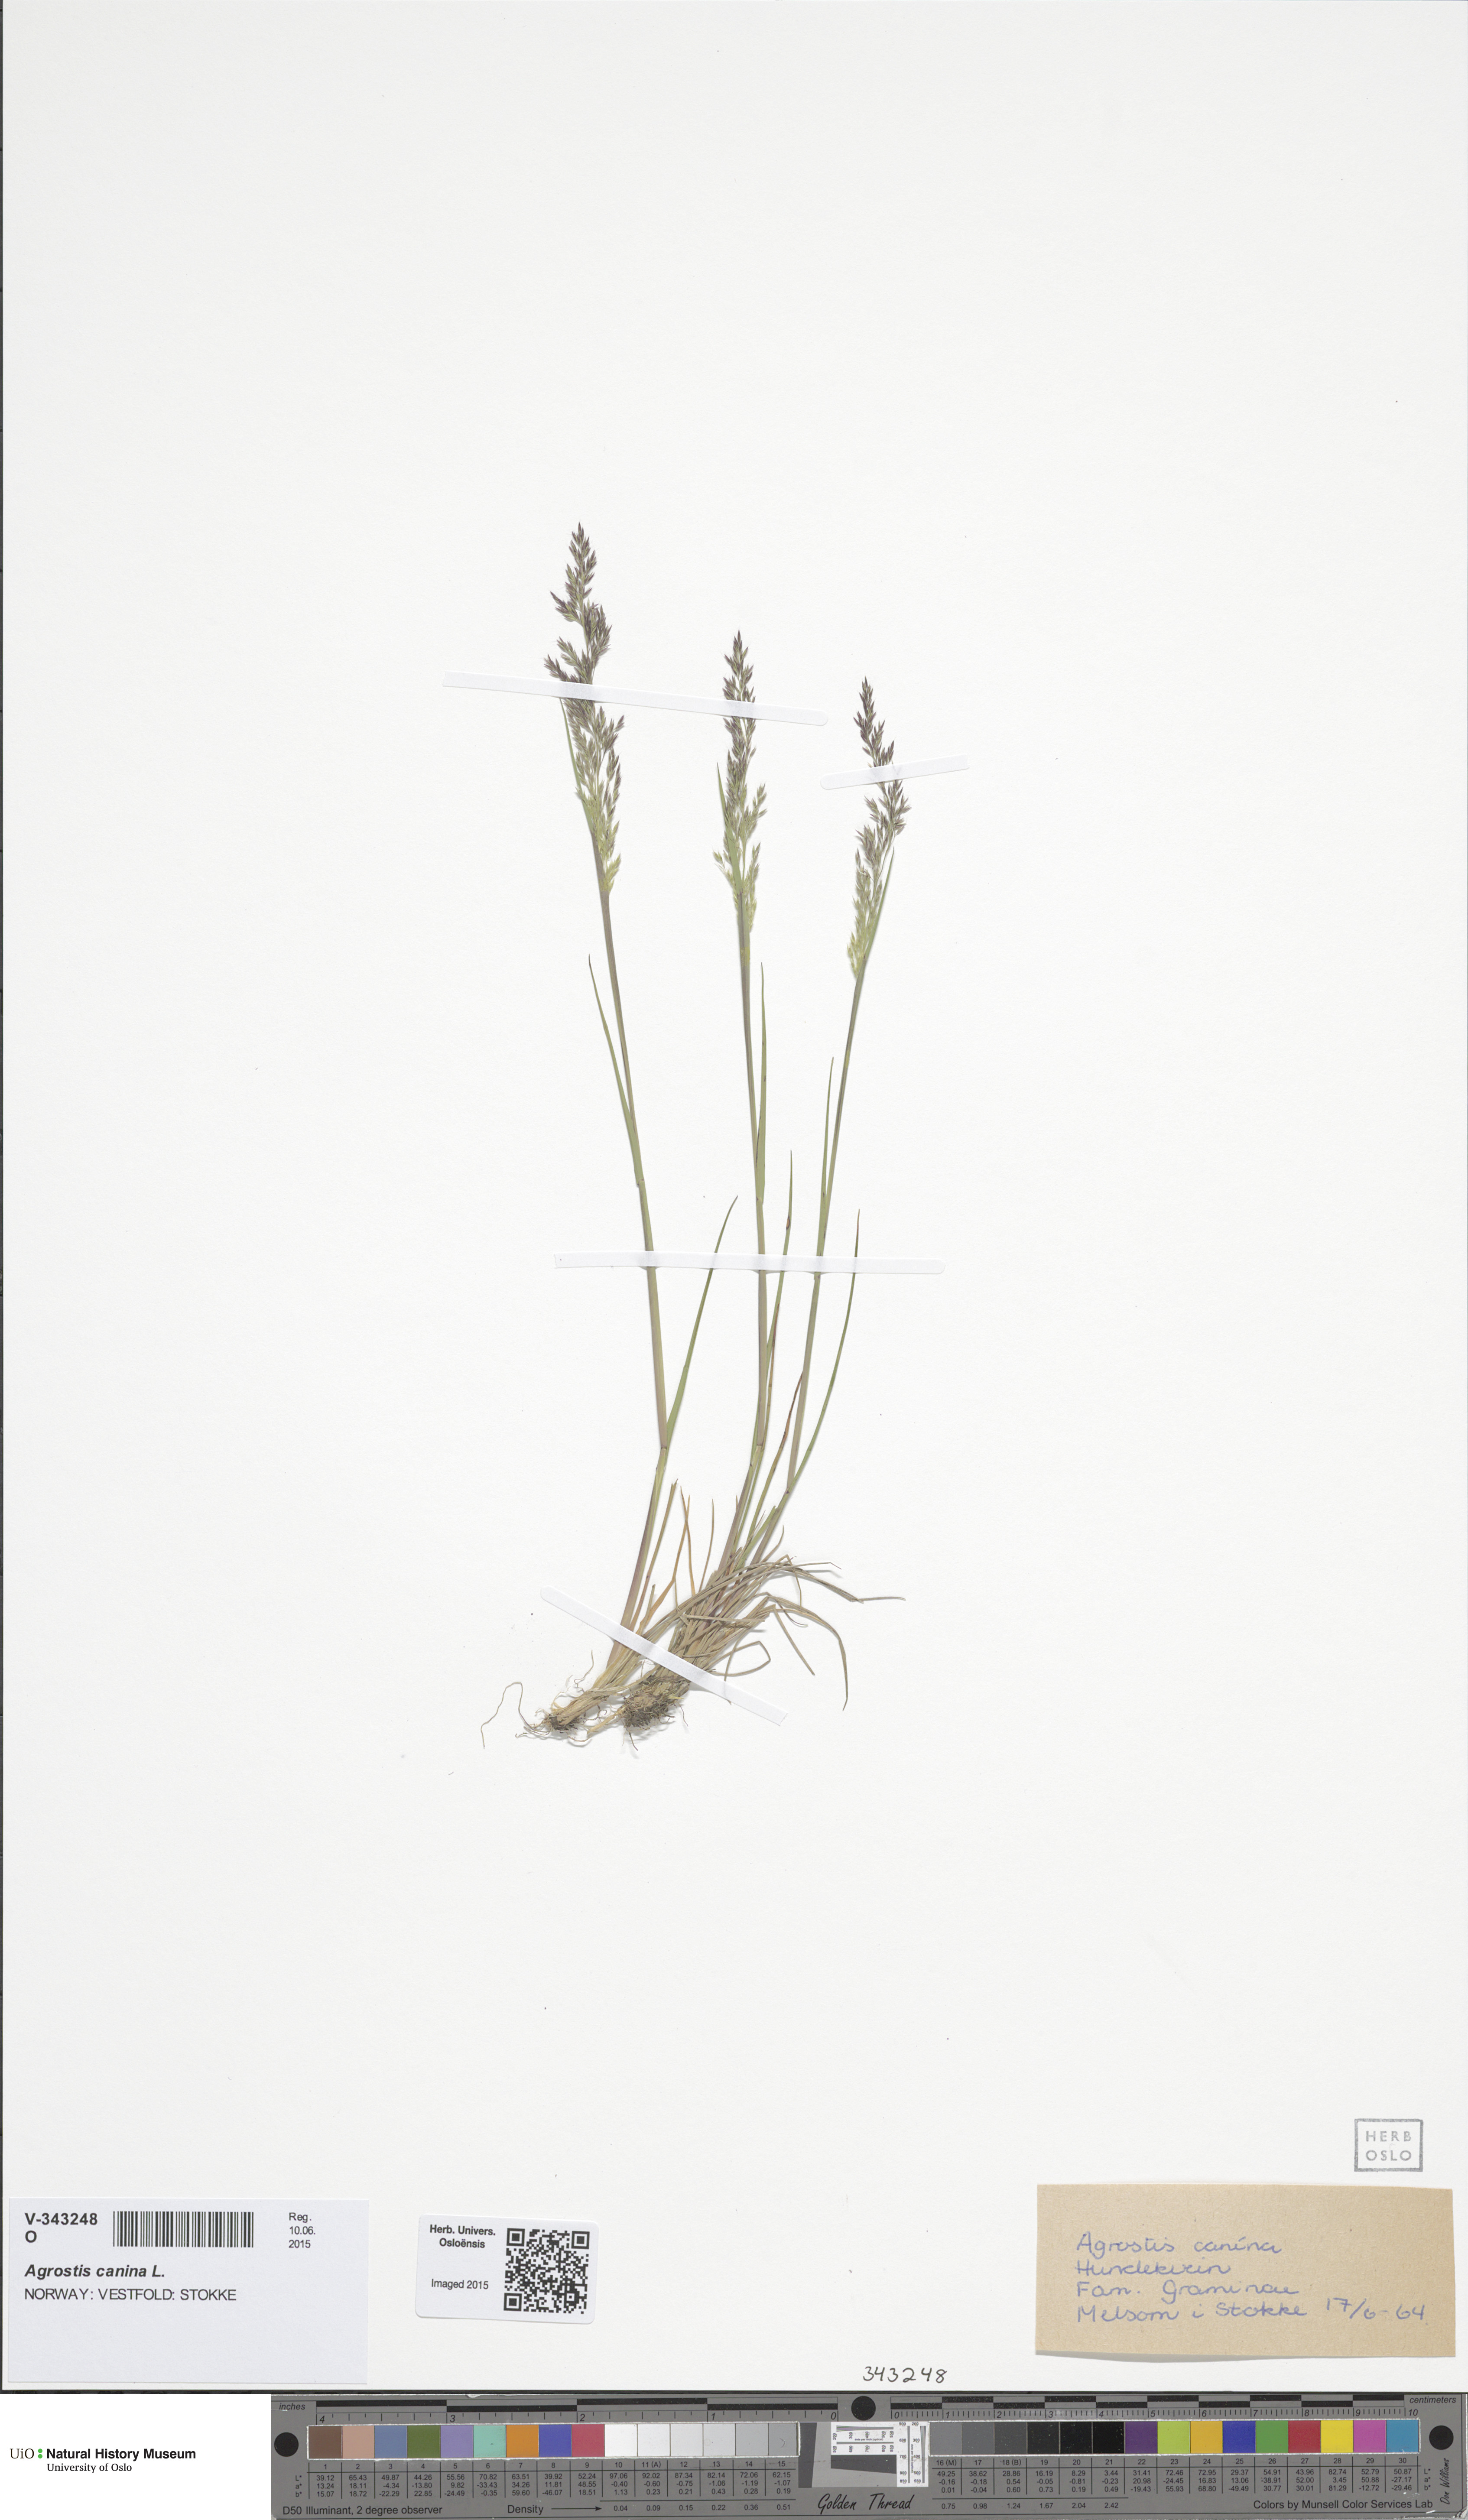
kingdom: Plantae
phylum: Tracheophyta
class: Liliopsida
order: Poales
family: Poaceae
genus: Agrostis
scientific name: Agrostis vinealis
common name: Brown bent
